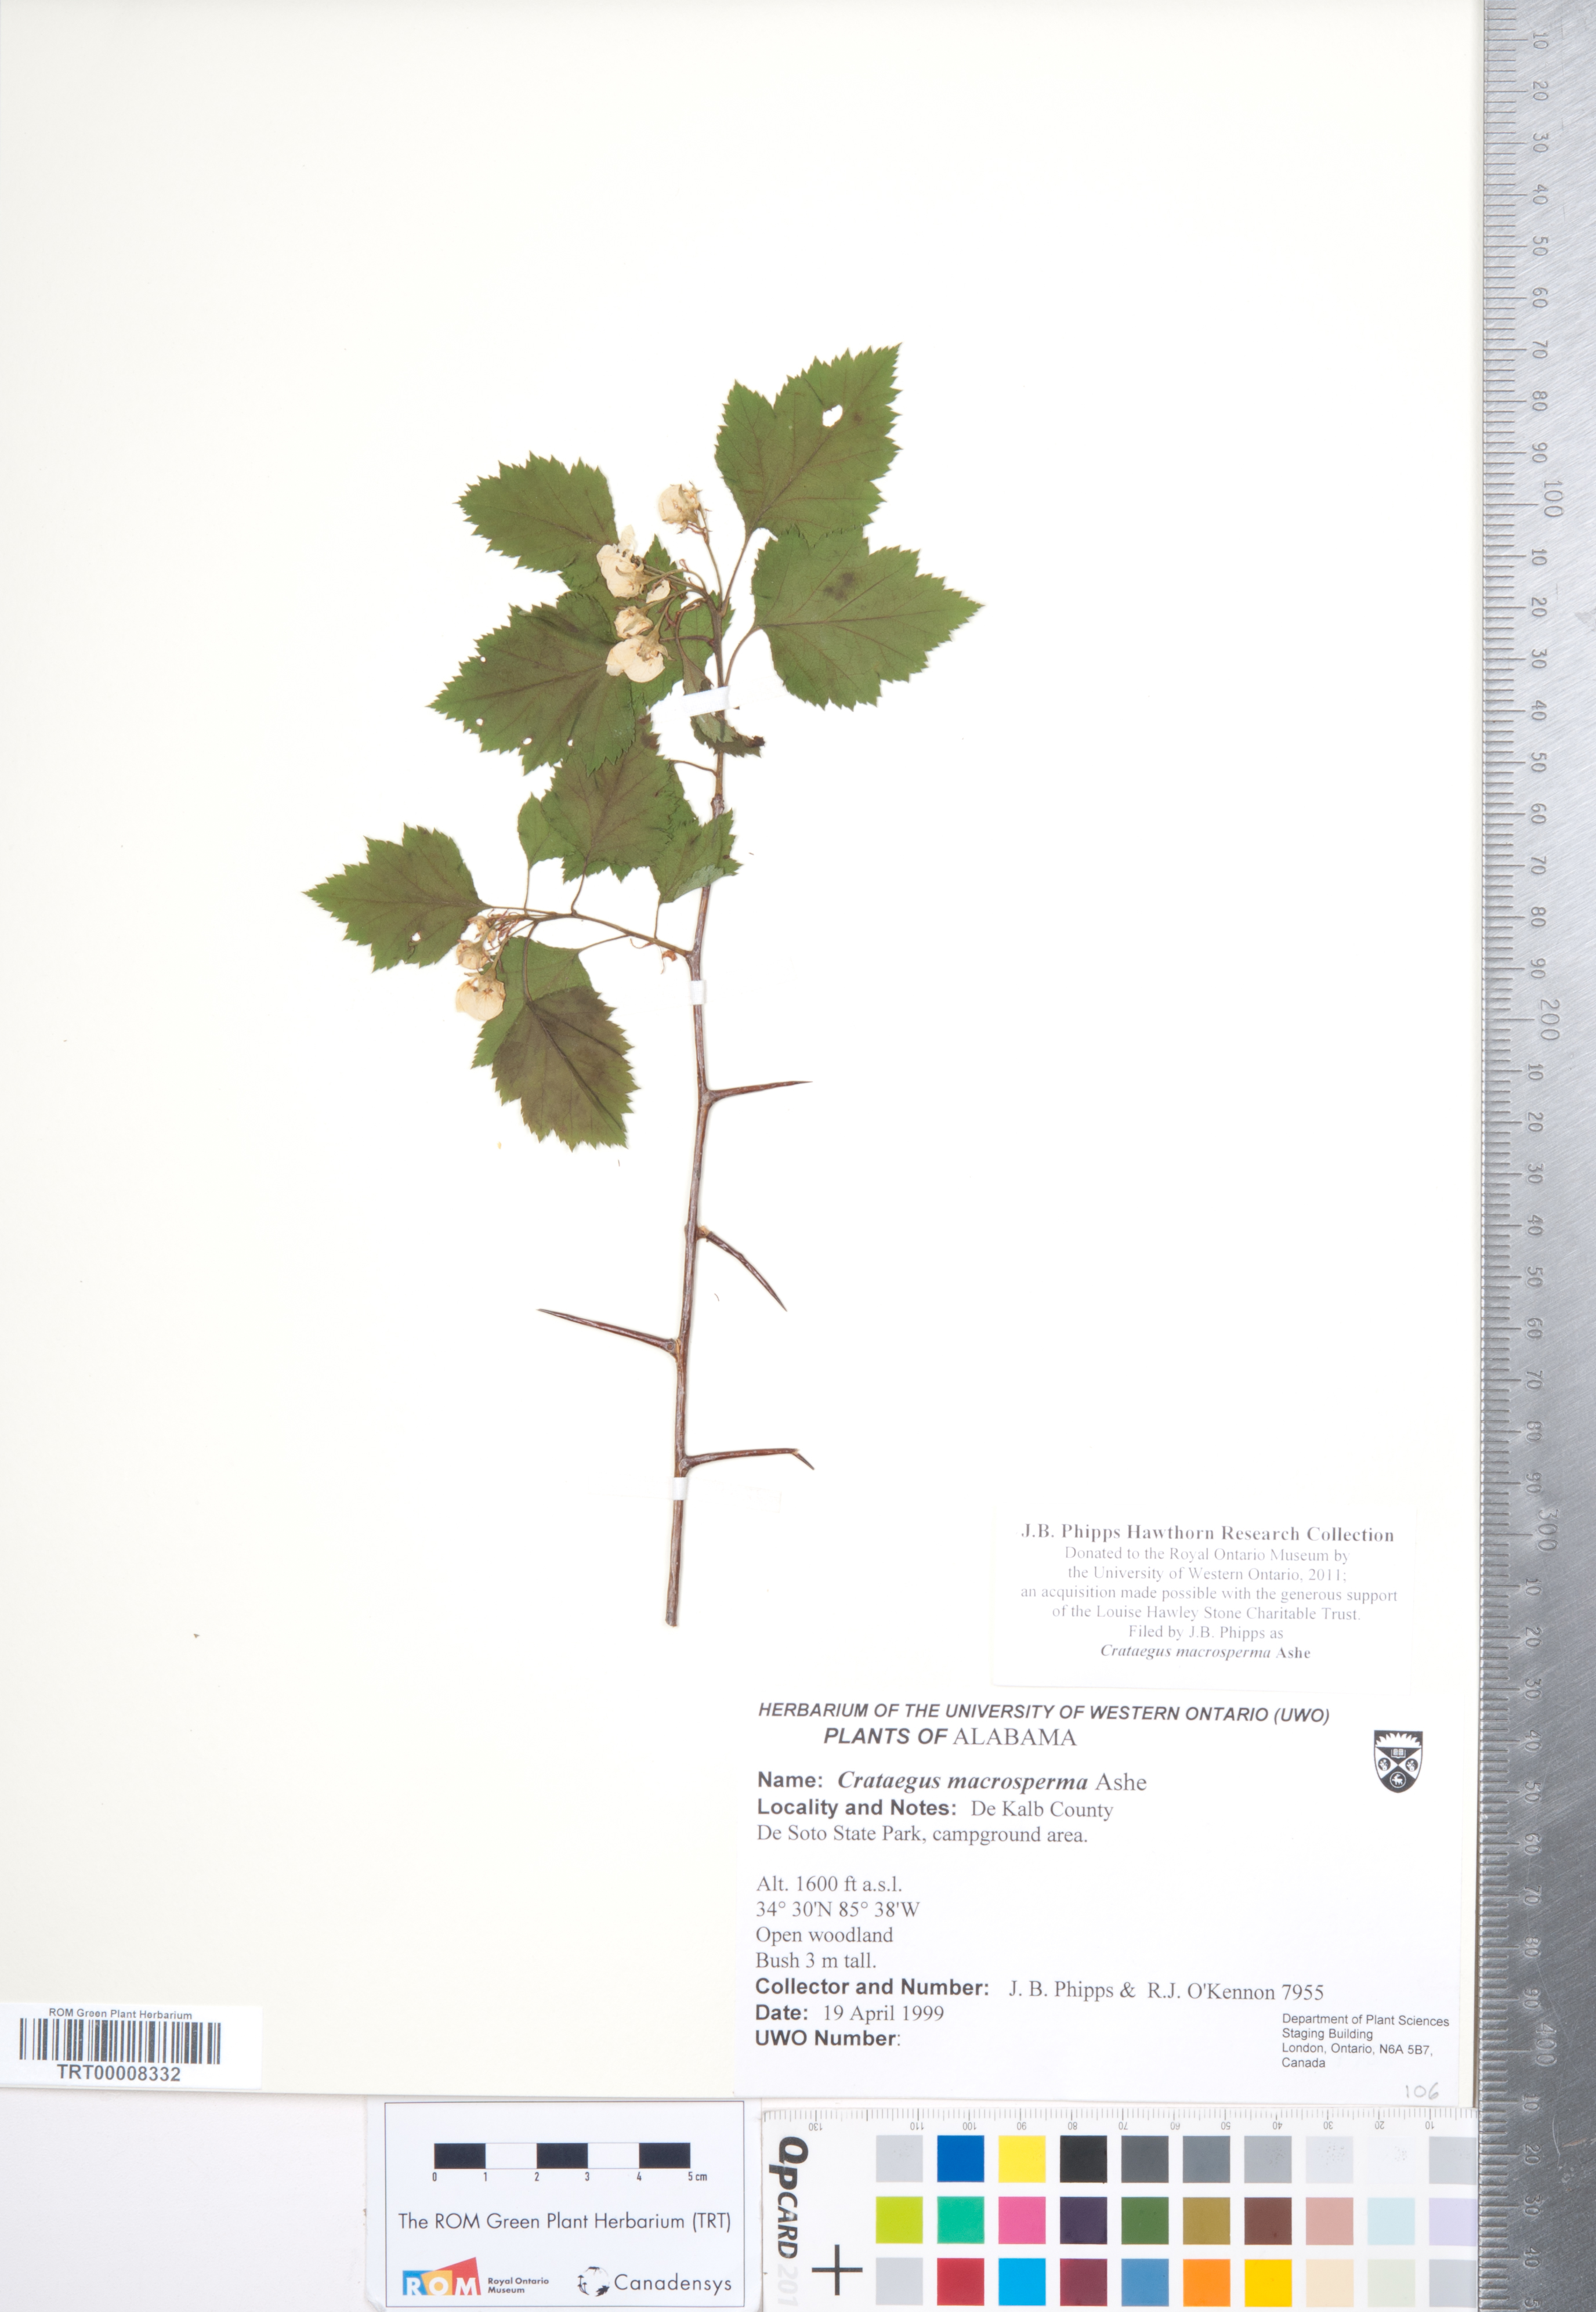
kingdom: Plantae
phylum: Tracheophyta
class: Magnoliopsida
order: Rosales
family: Rosaceae
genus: Crataegus
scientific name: Crataegus macrosperma
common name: Variable hawthorn
